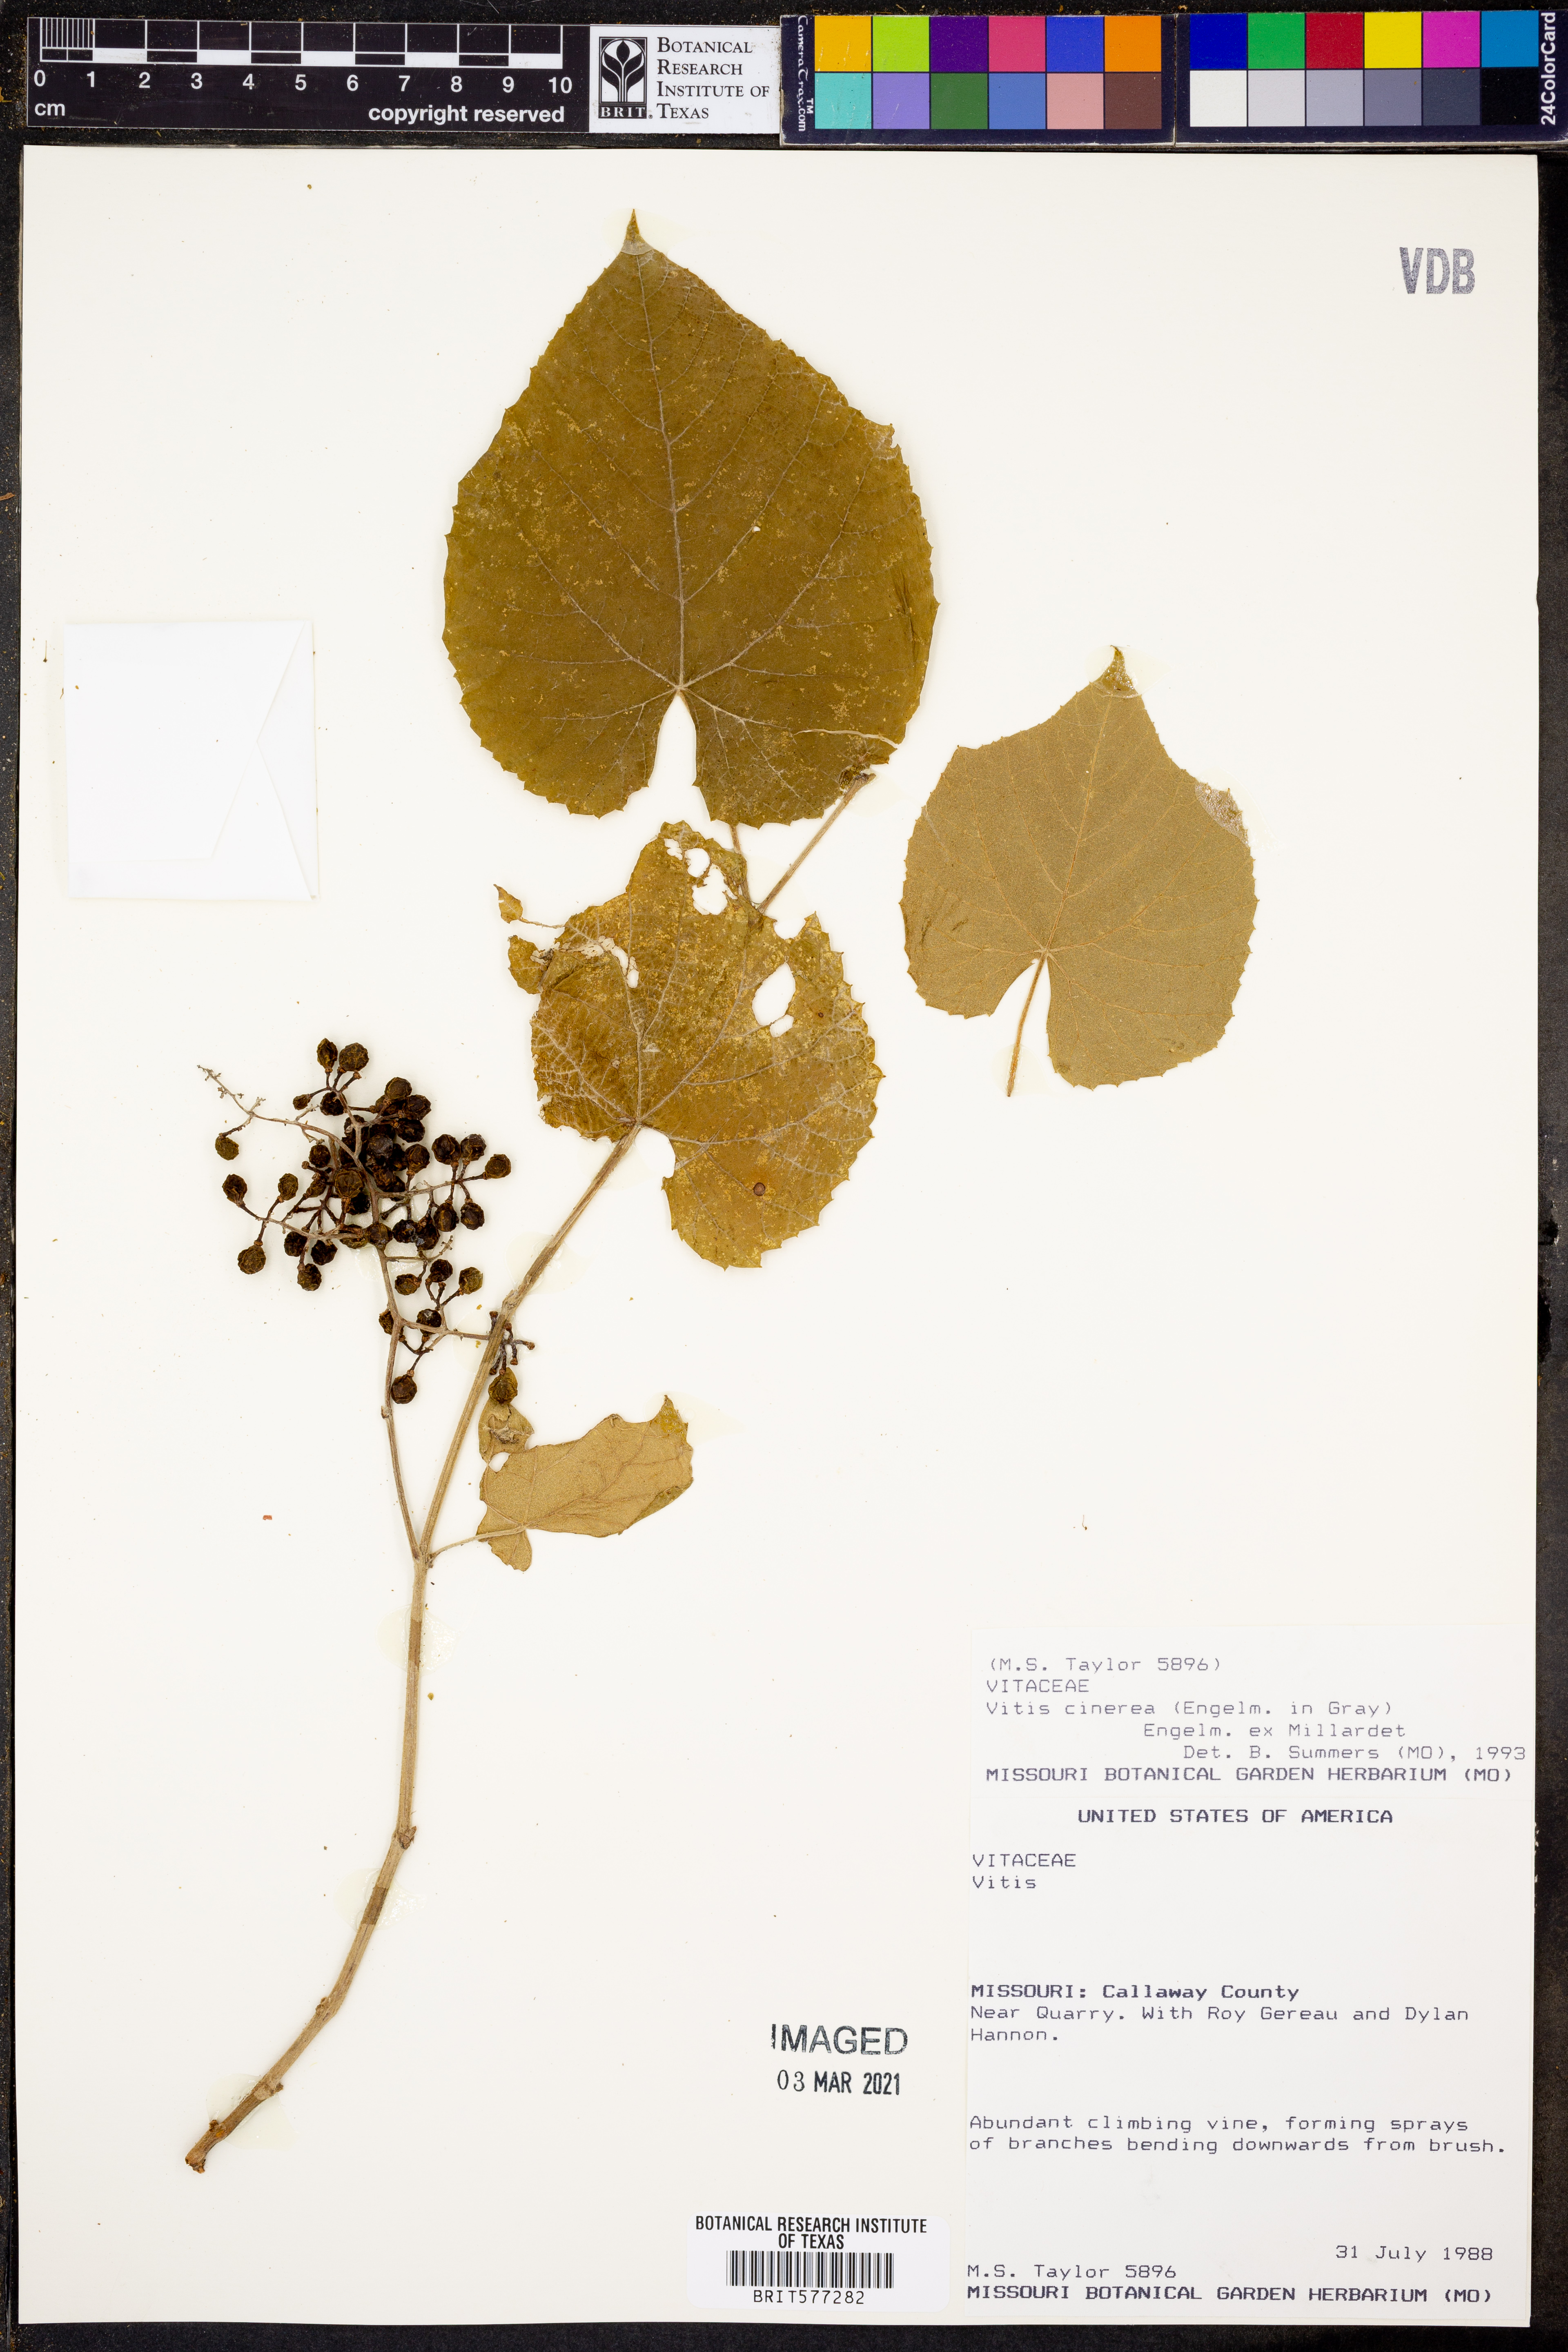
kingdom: Plantae
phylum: Tracheophyta
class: Magnoliopsida
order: Vitales
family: Vitaceae
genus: Vitis
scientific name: Vitis cinerea
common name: Ashy grape
